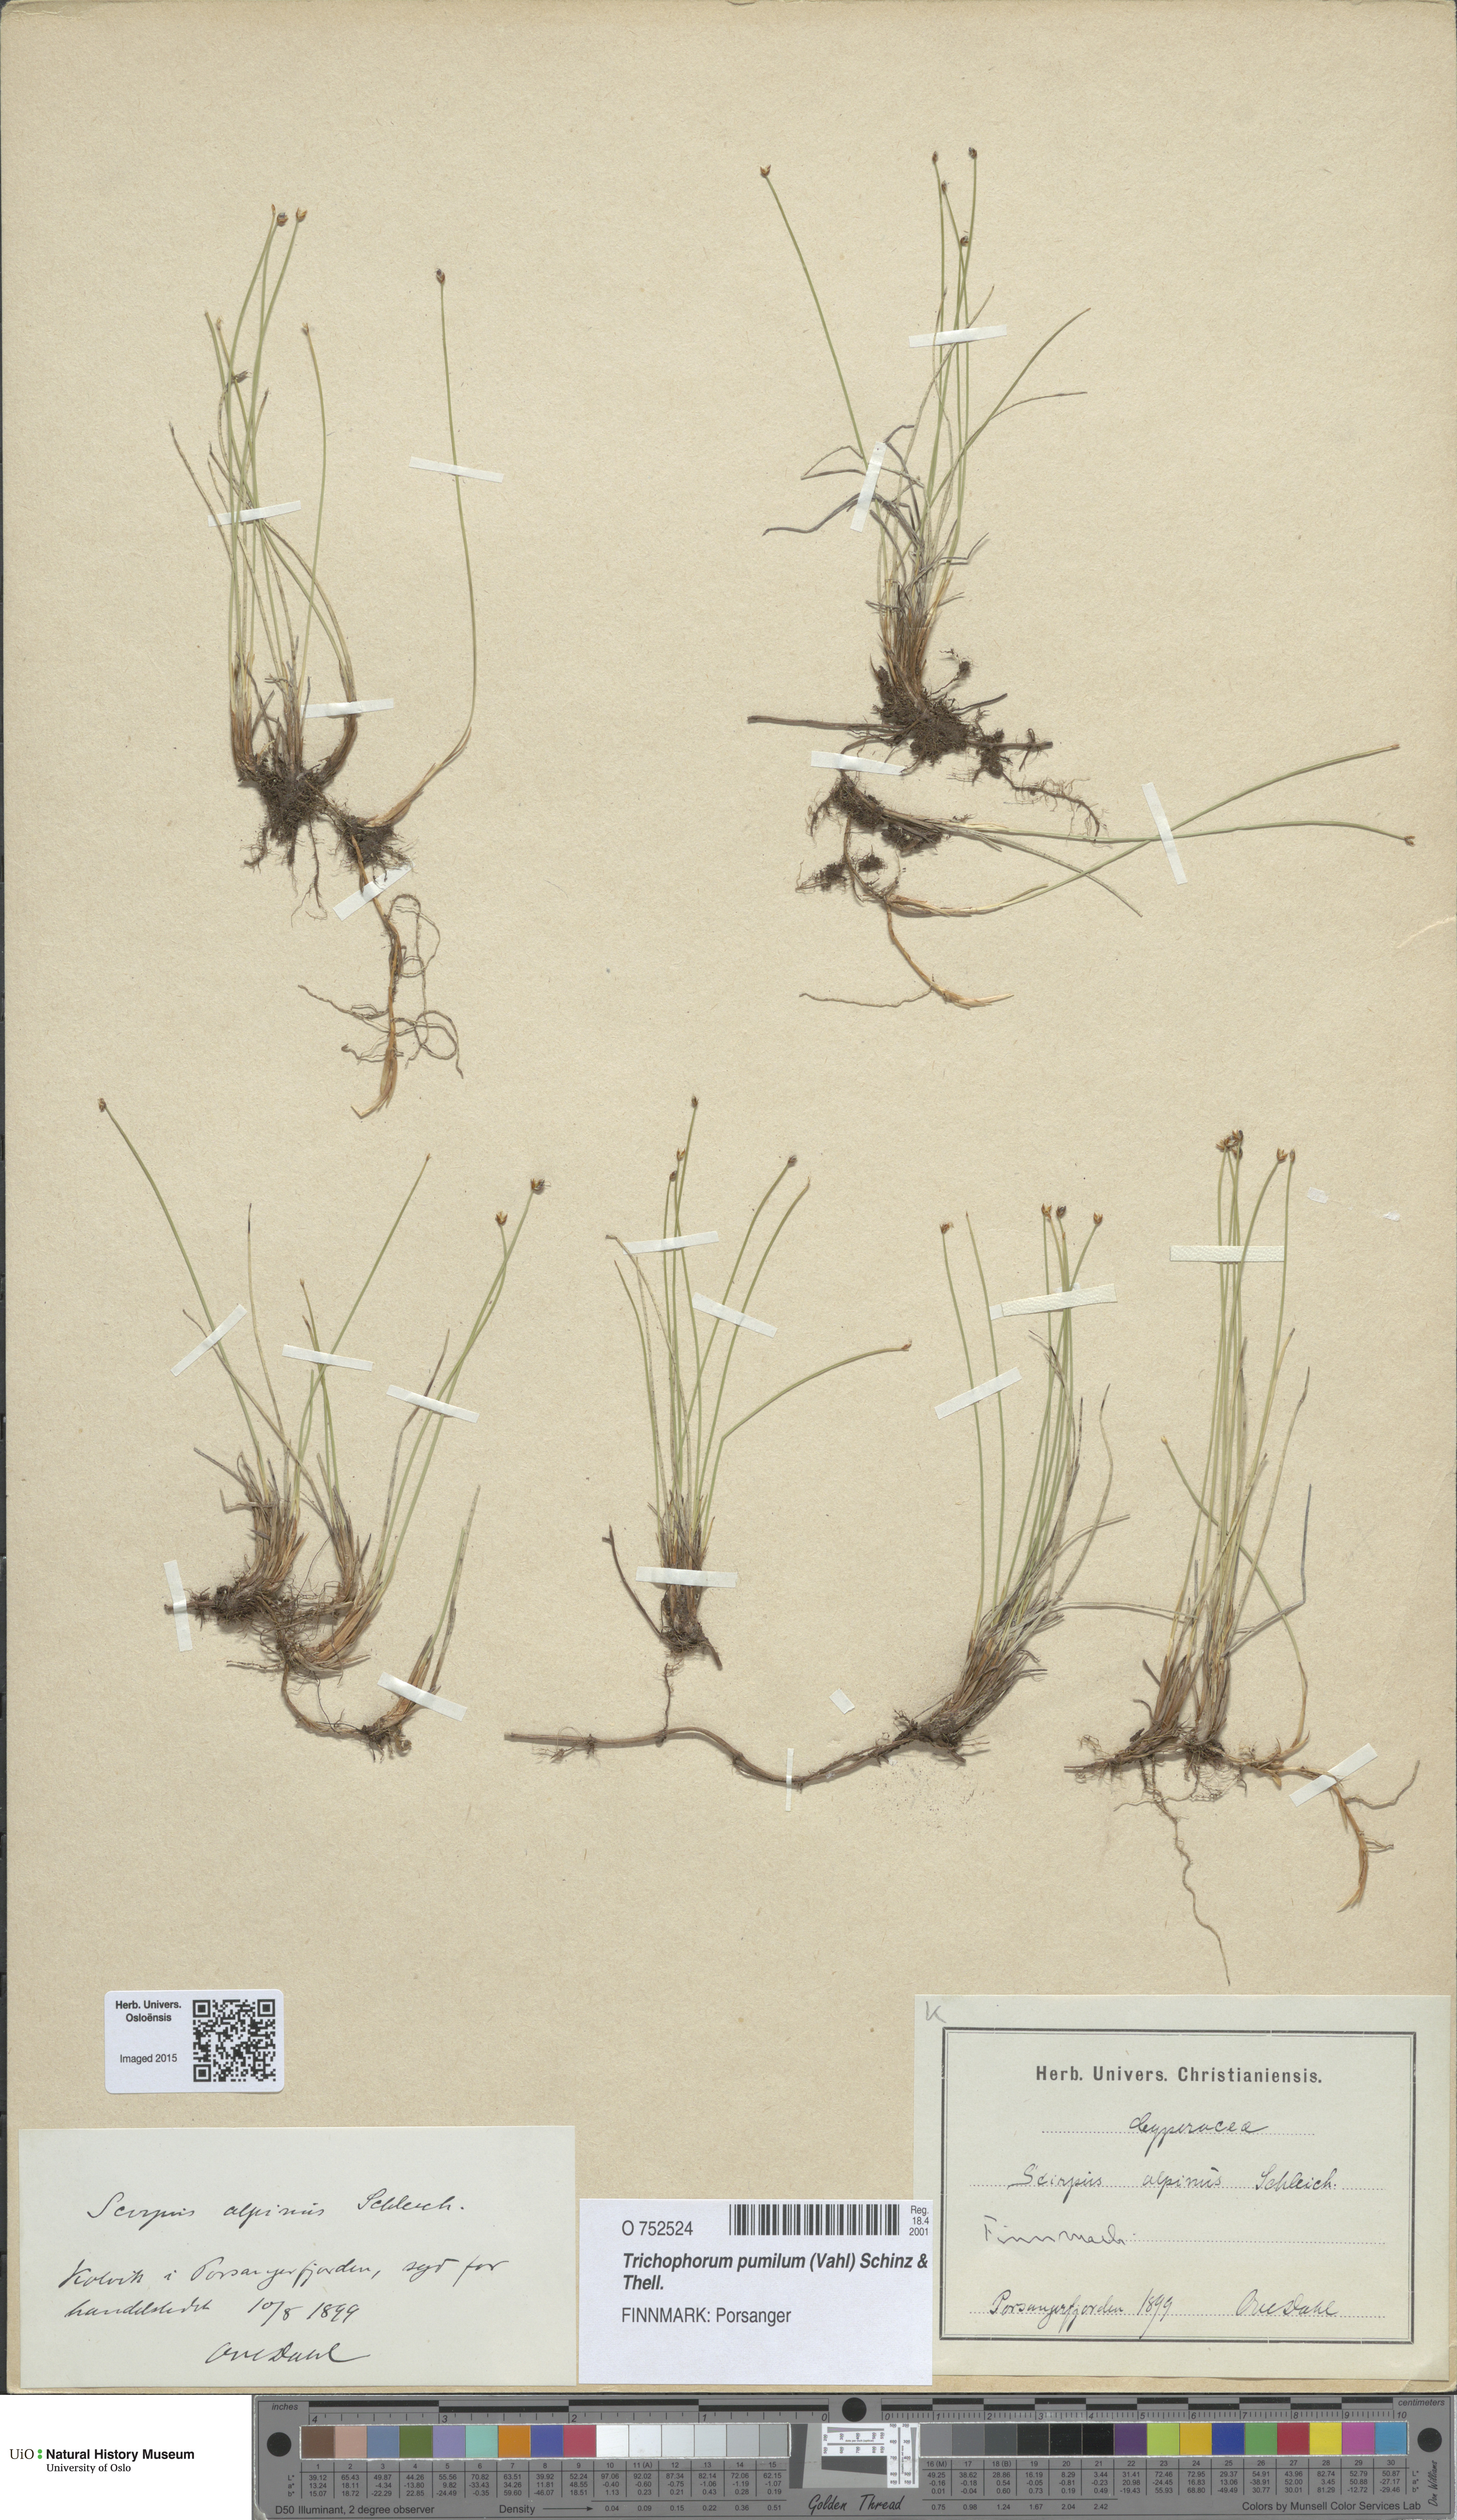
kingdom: Plantae
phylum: Tracheophyta
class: Liliopsida
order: Poales
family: Cyperaceae
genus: Trichophorum
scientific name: Trichophorum pumilum
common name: Rolland's bulrush
